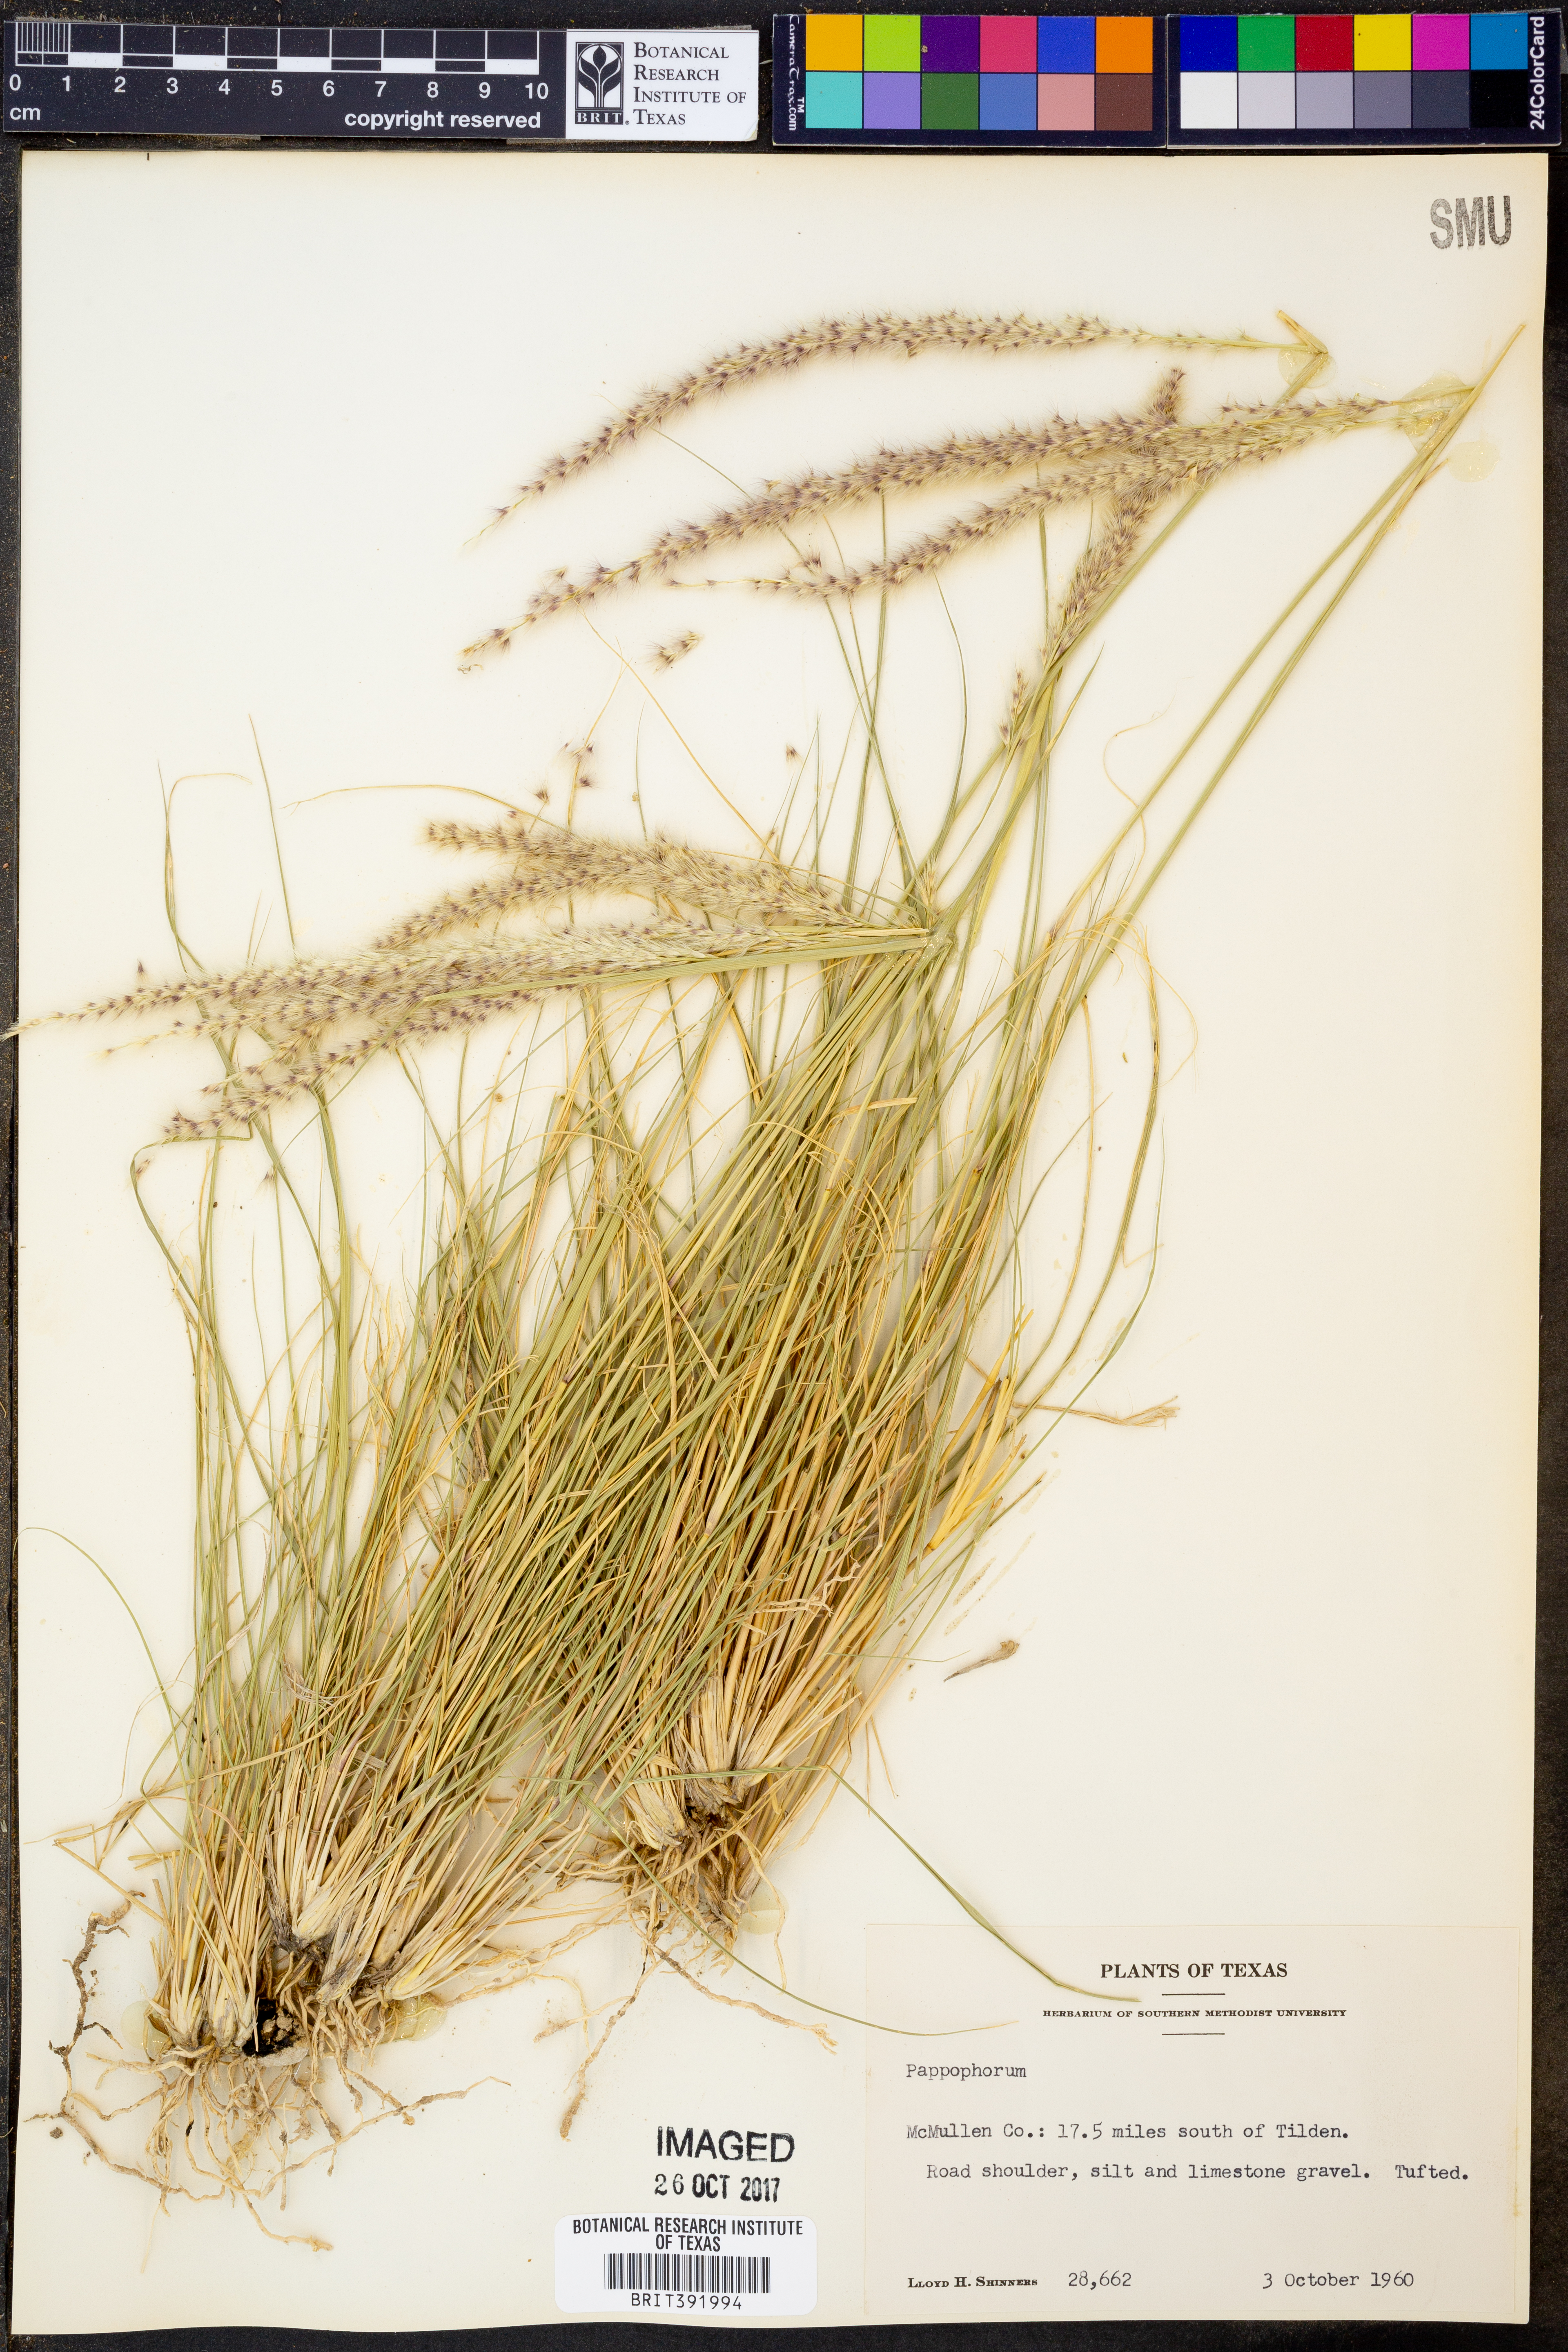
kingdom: Plantae
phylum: Tracheophyta
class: Liliopsida
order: Poales
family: Poaceae
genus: Pappophorum
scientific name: Pappophorum
